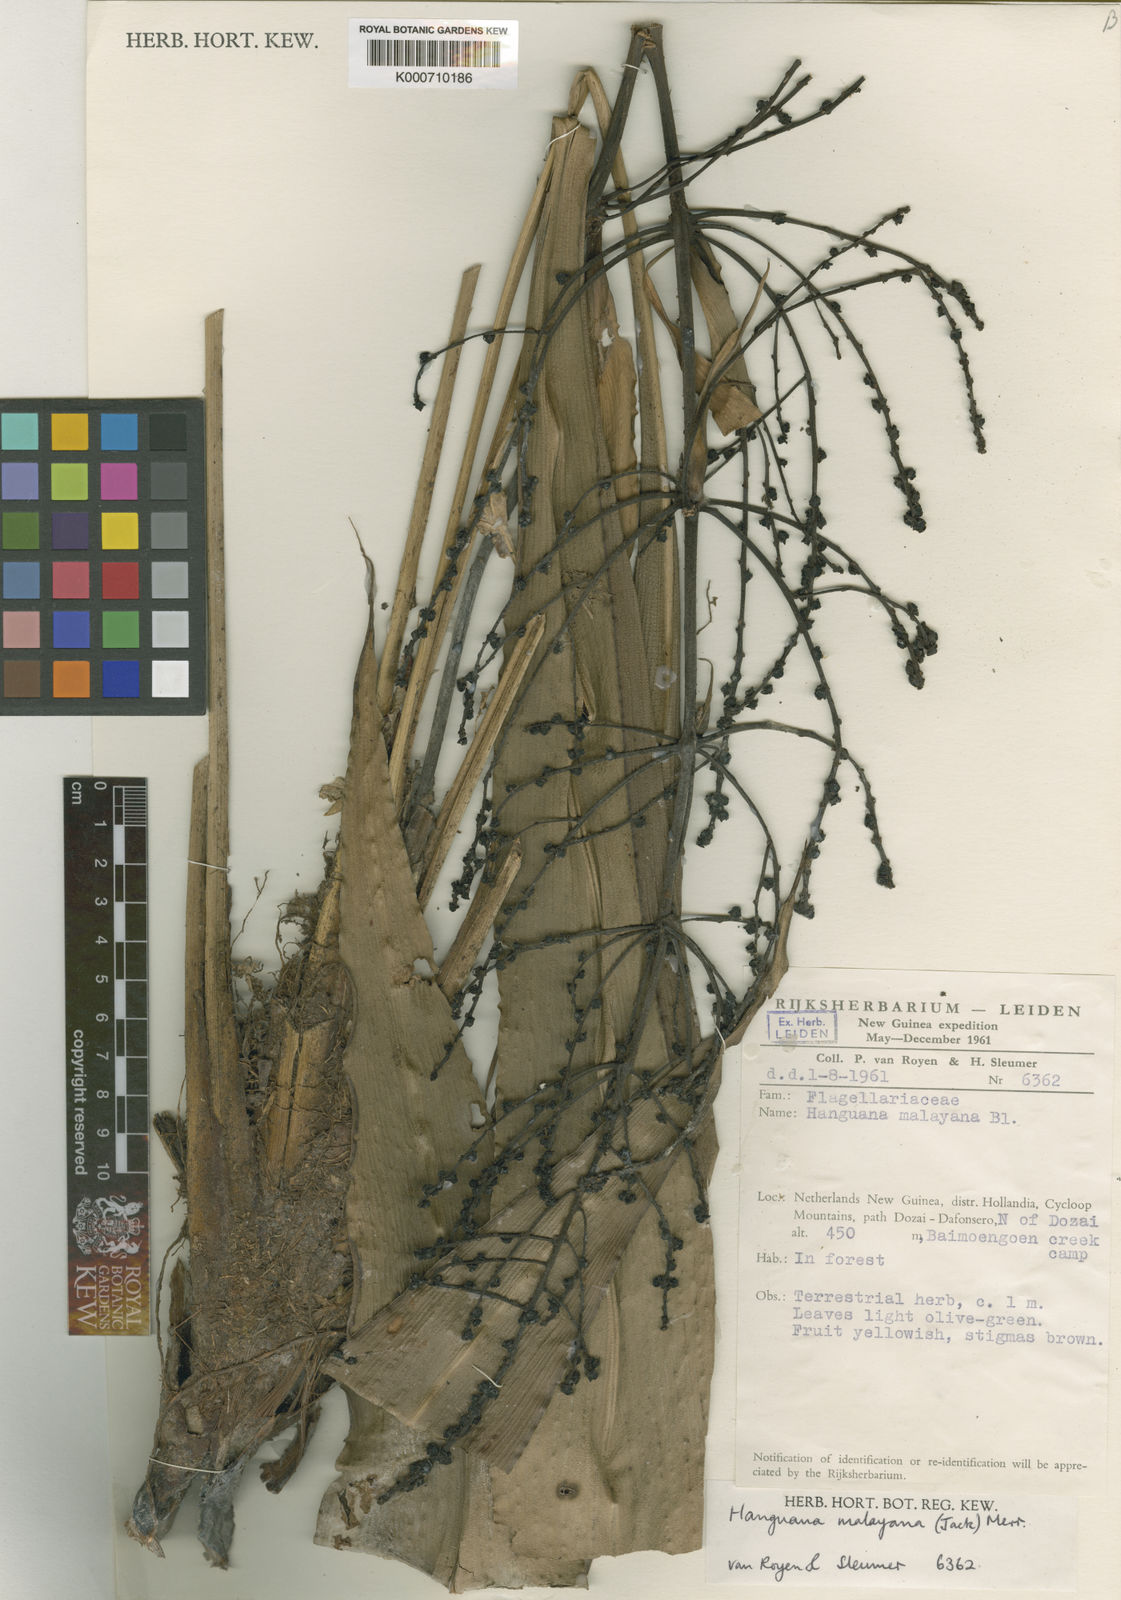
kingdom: Plantae
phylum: Tracheophyta
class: Liliopsida
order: Commelinales
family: Hanguanaceae
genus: Hanguana
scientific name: Hanguana malayana
